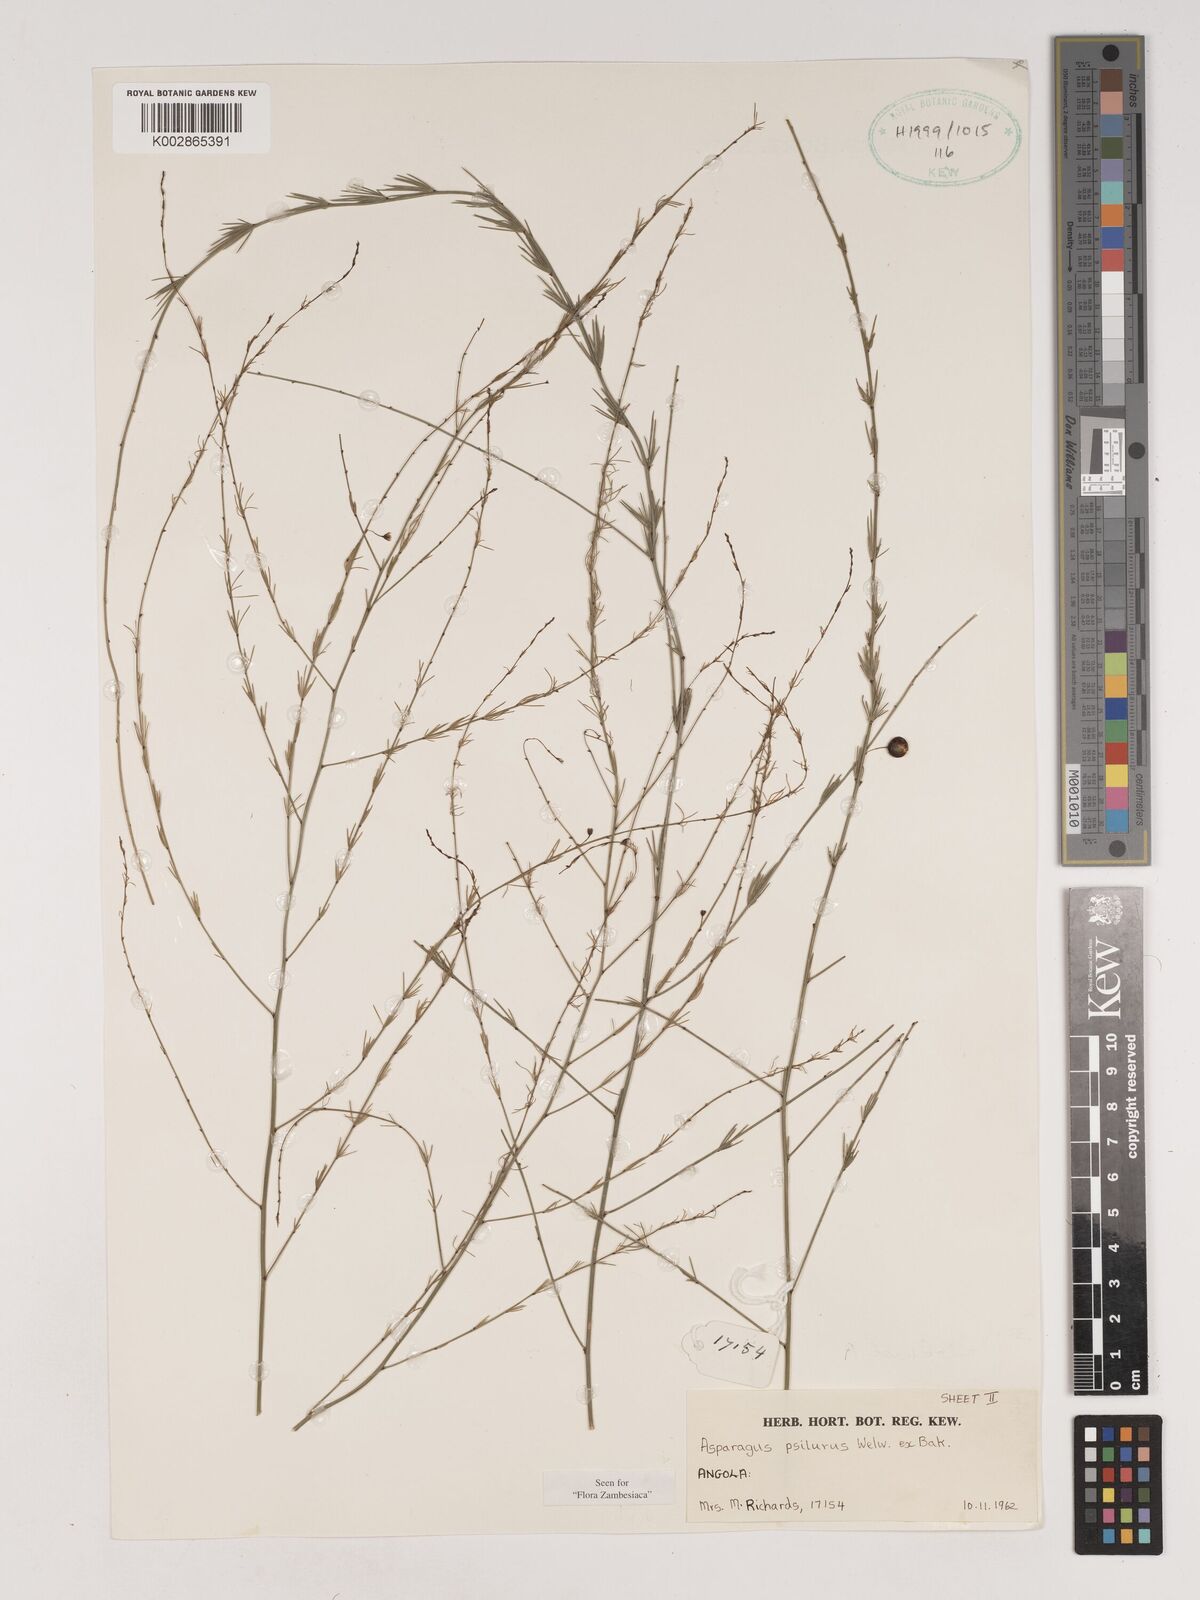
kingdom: Plantae
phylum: Tracheophyta
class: Liliopsida
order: Asparagales
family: Asparagaceae
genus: Asparagus
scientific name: Asparagus psilurus
